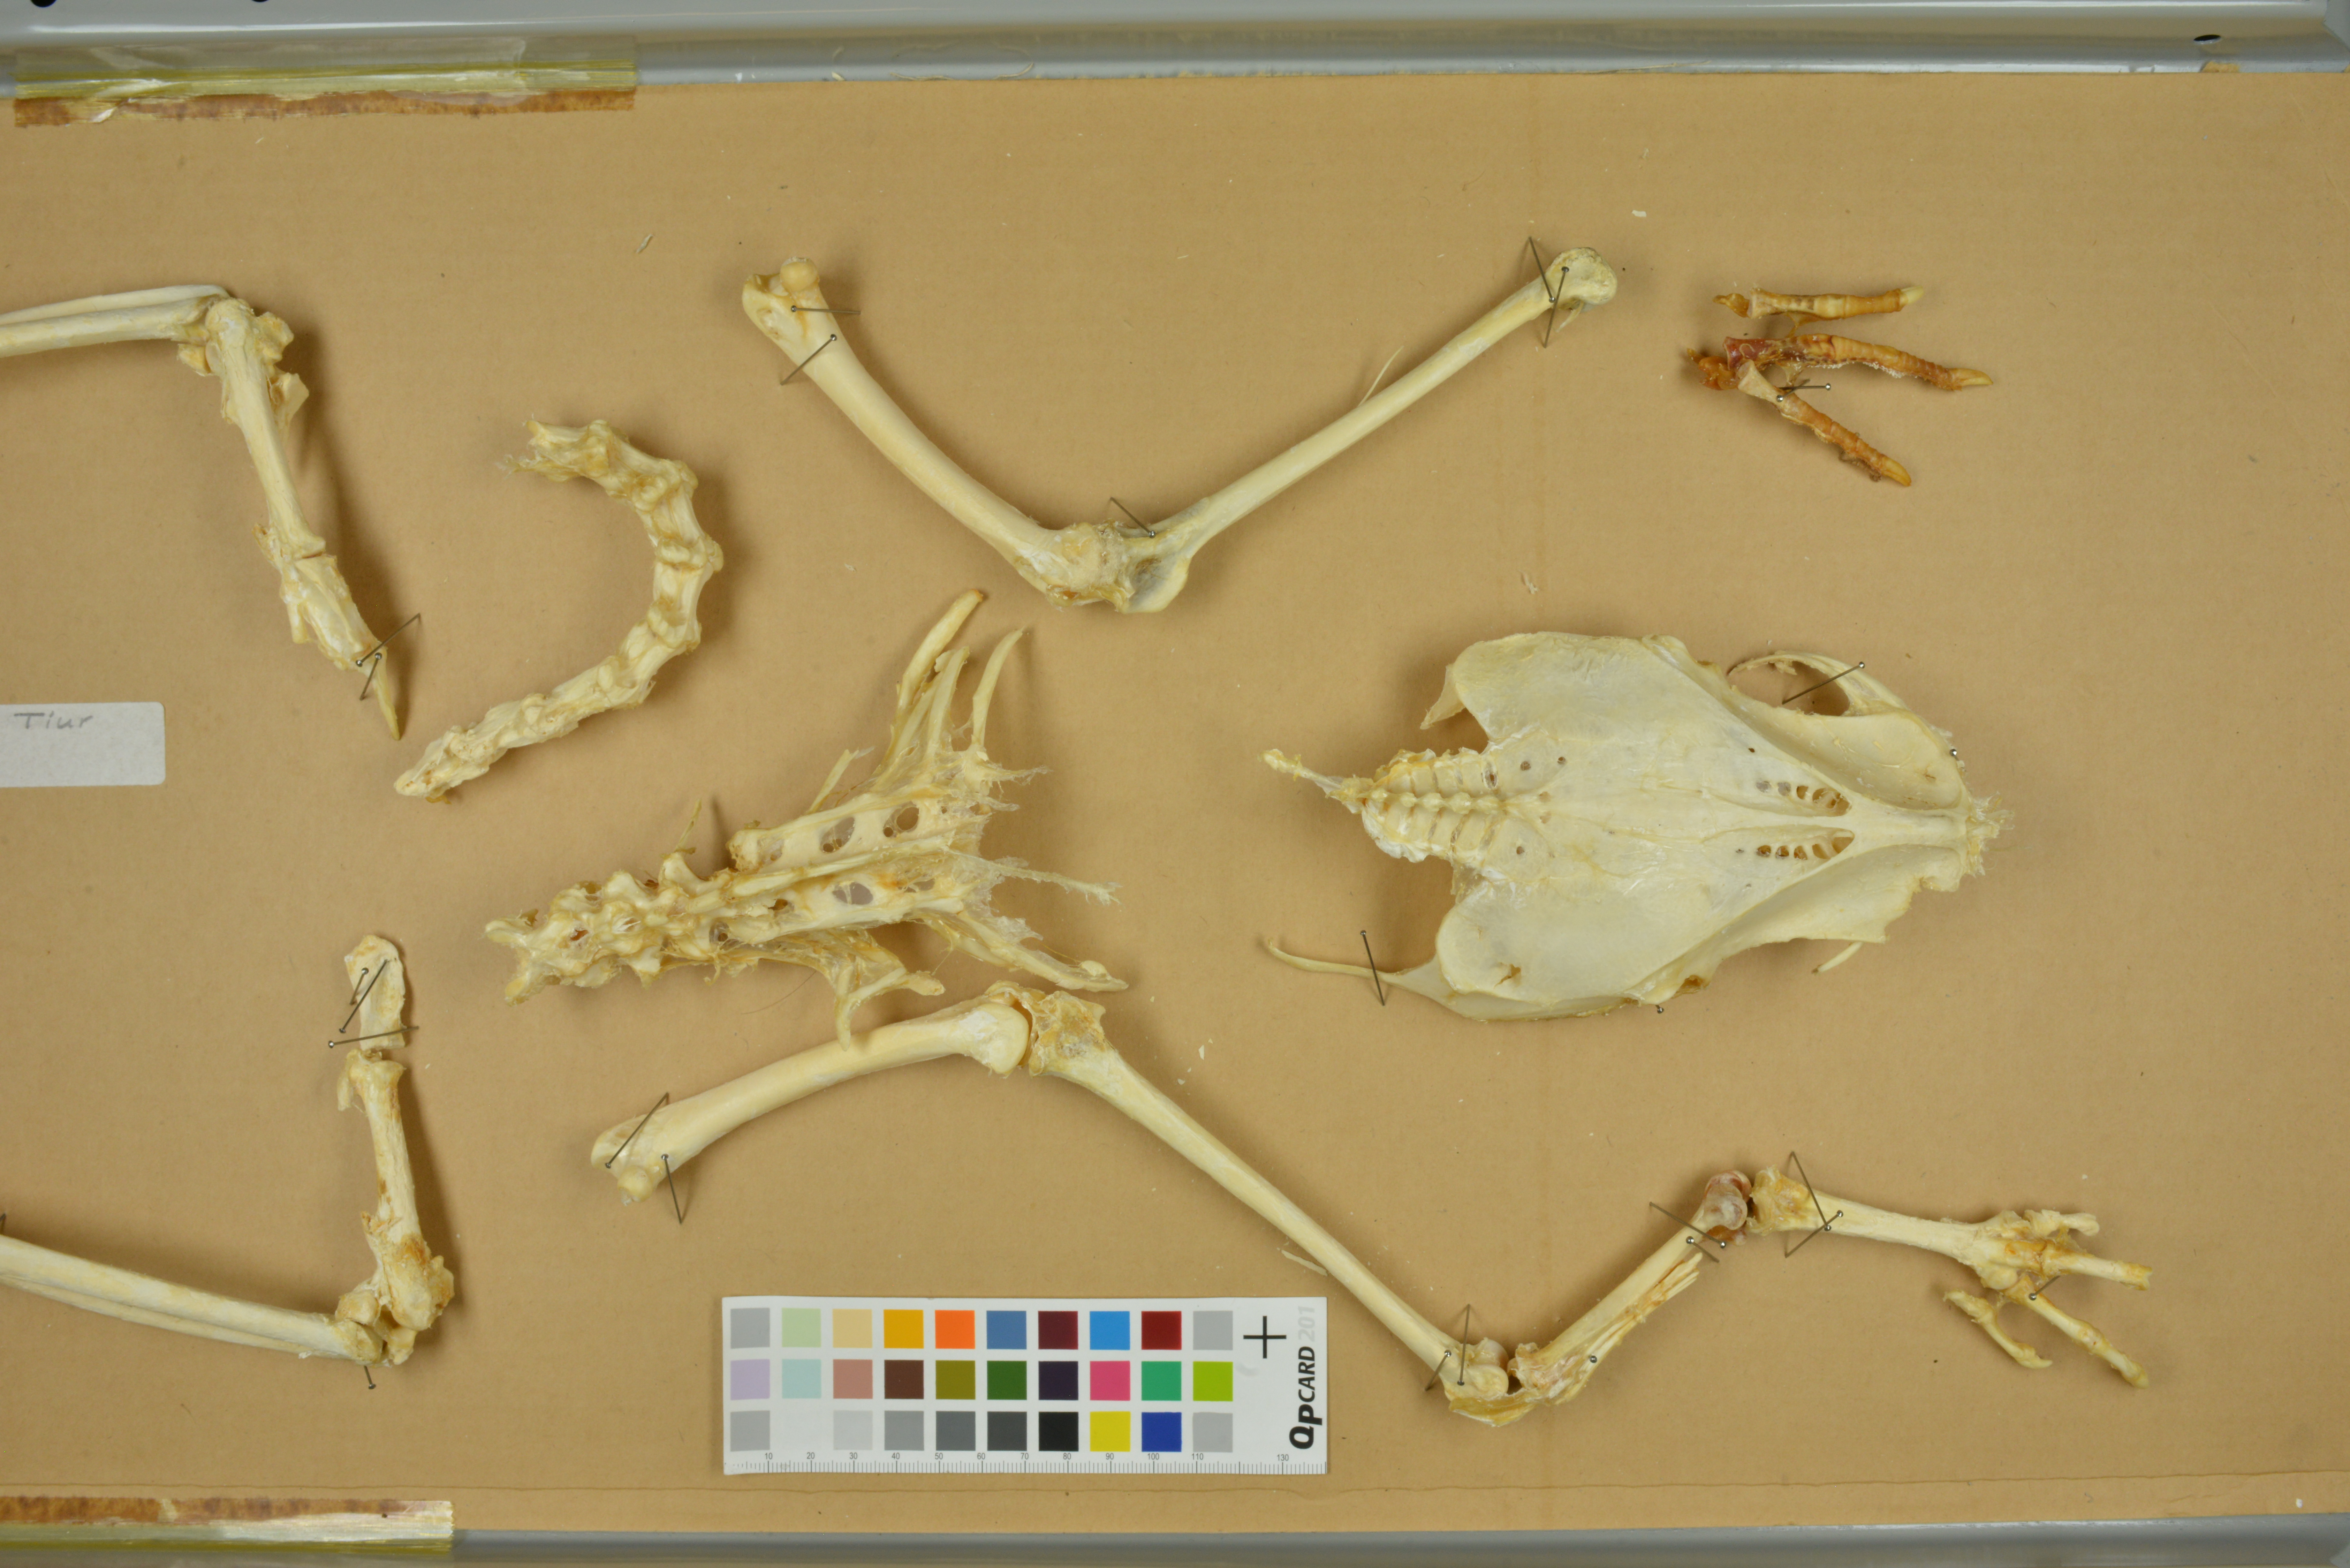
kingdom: Animalia
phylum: Chordata
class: Aves
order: Galliformes
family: Phasianidae
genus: Tetrao
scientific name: Tetrao urogallus
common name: Western capercaillie
